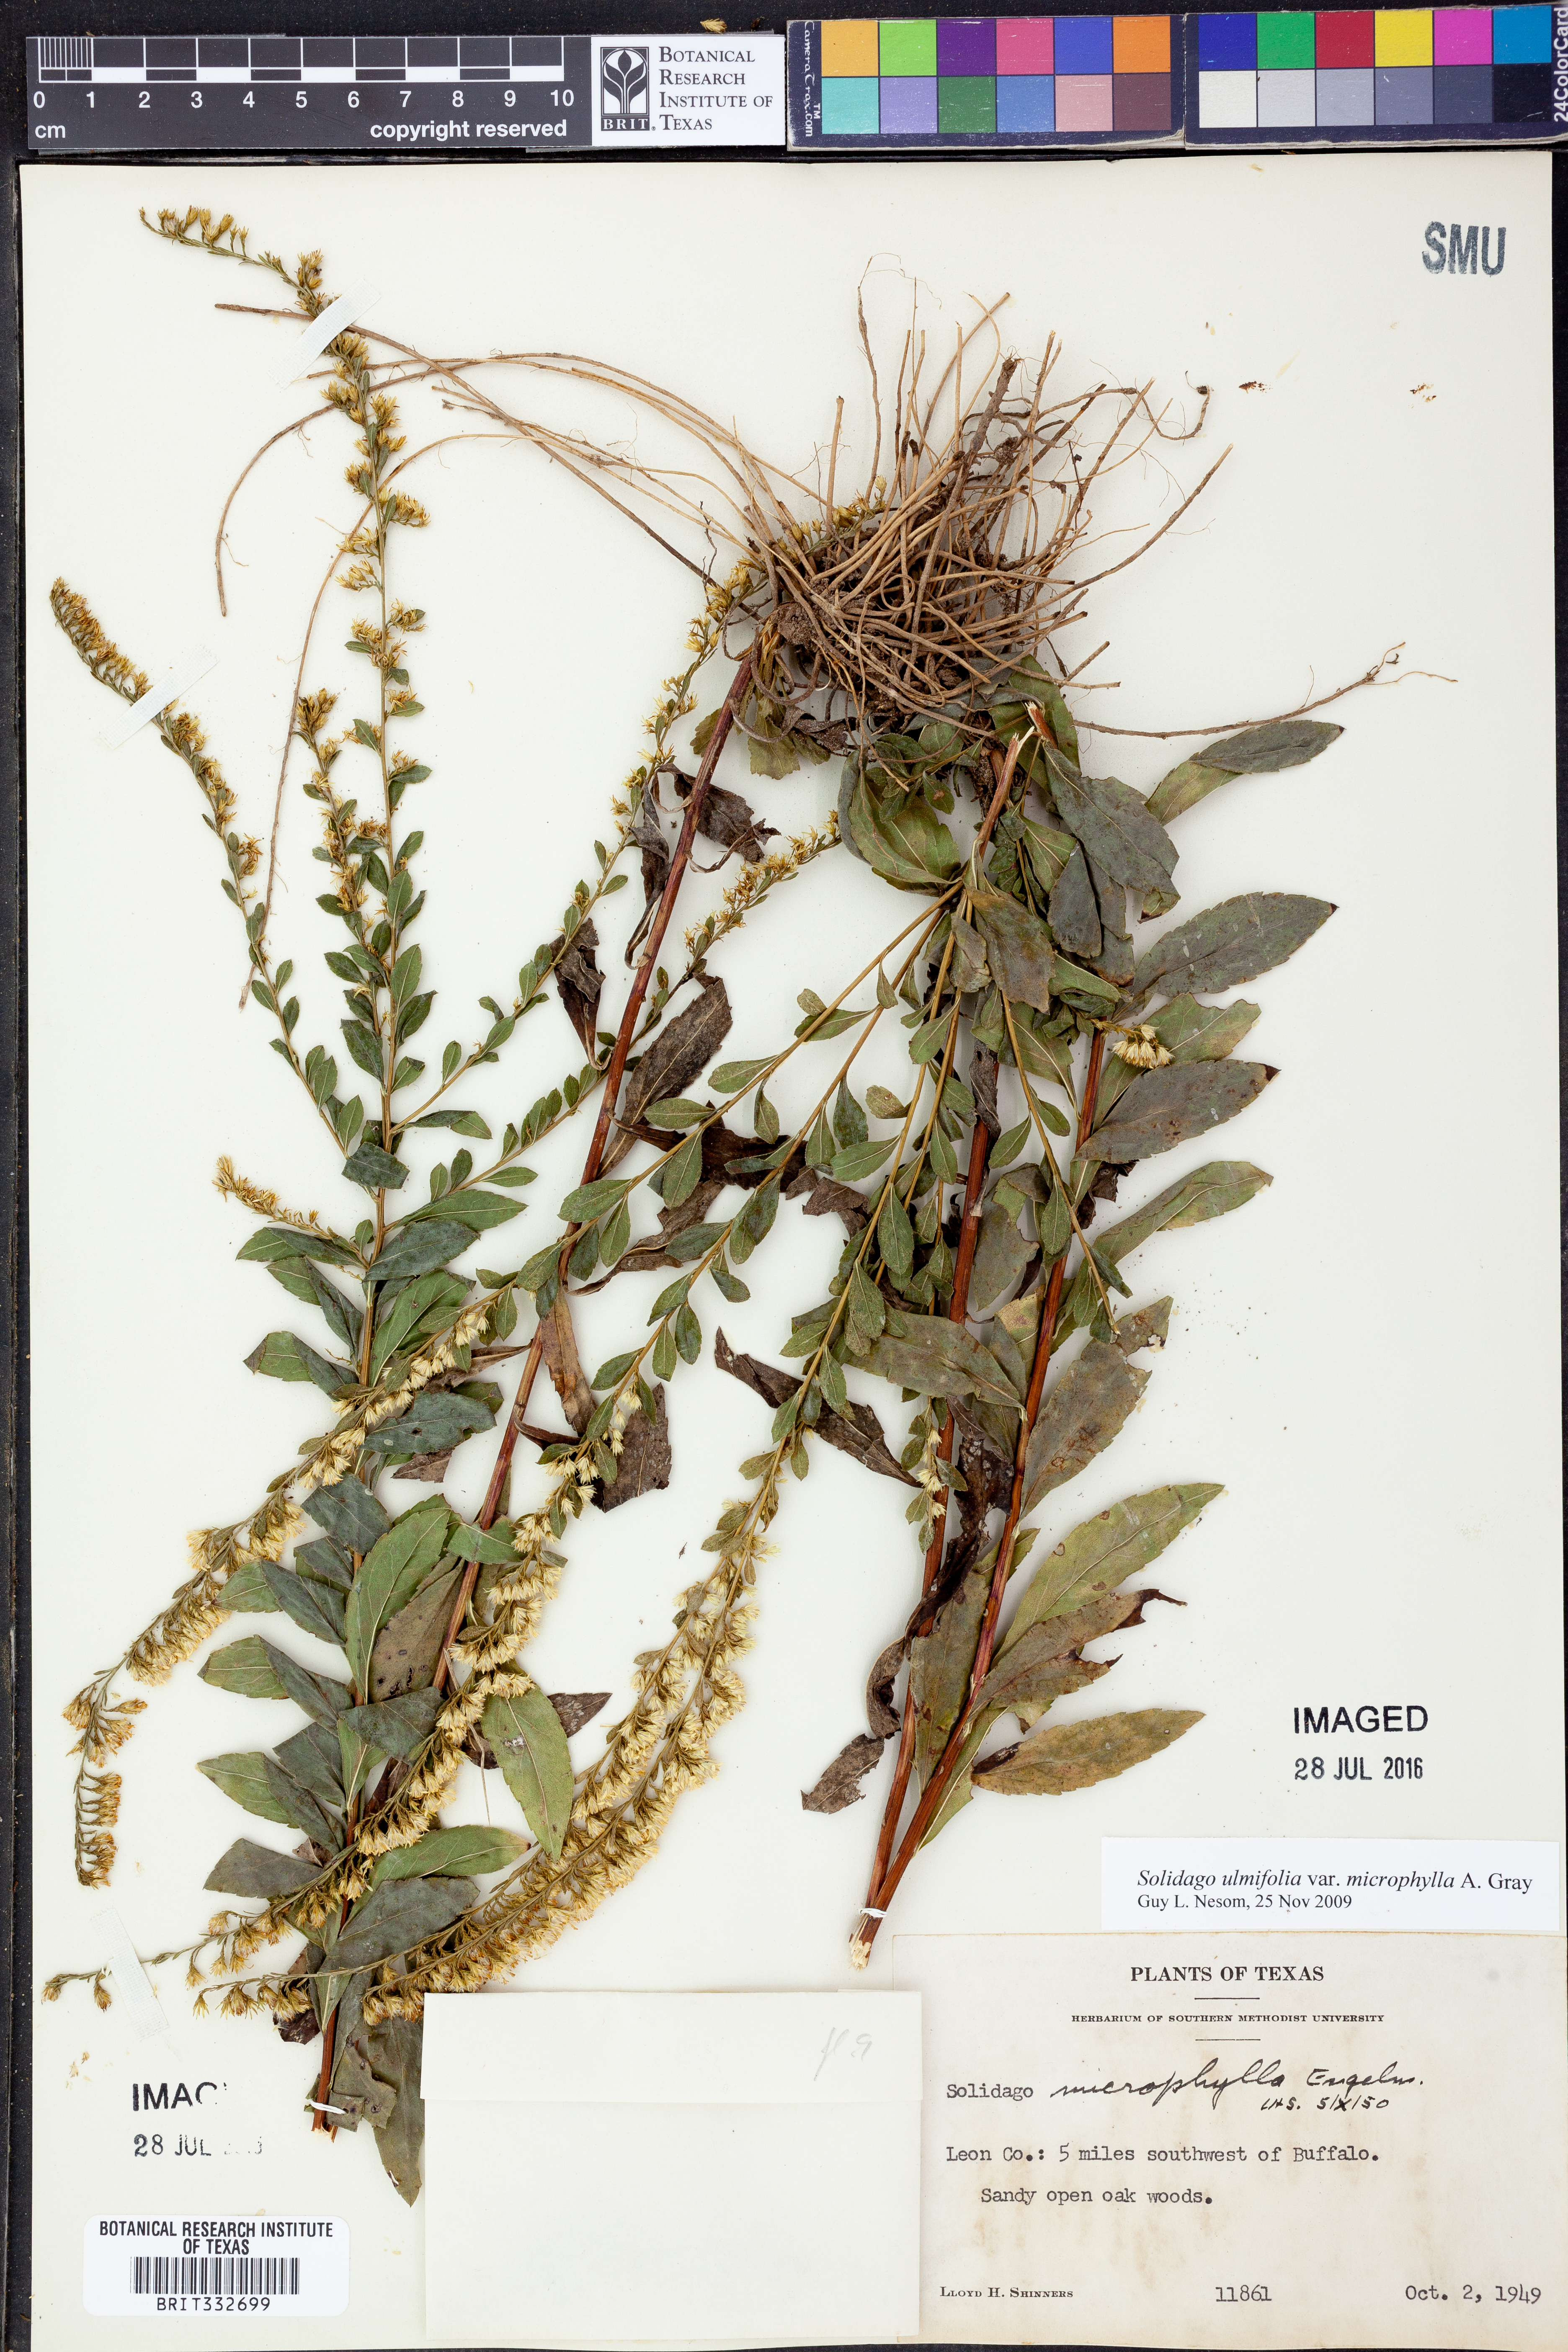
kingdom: Plantae
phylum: Tracheophyta
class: Magnoliopsida
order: Asterales
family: Asteraceae
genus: Solidago
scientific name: Solidago delicatula
